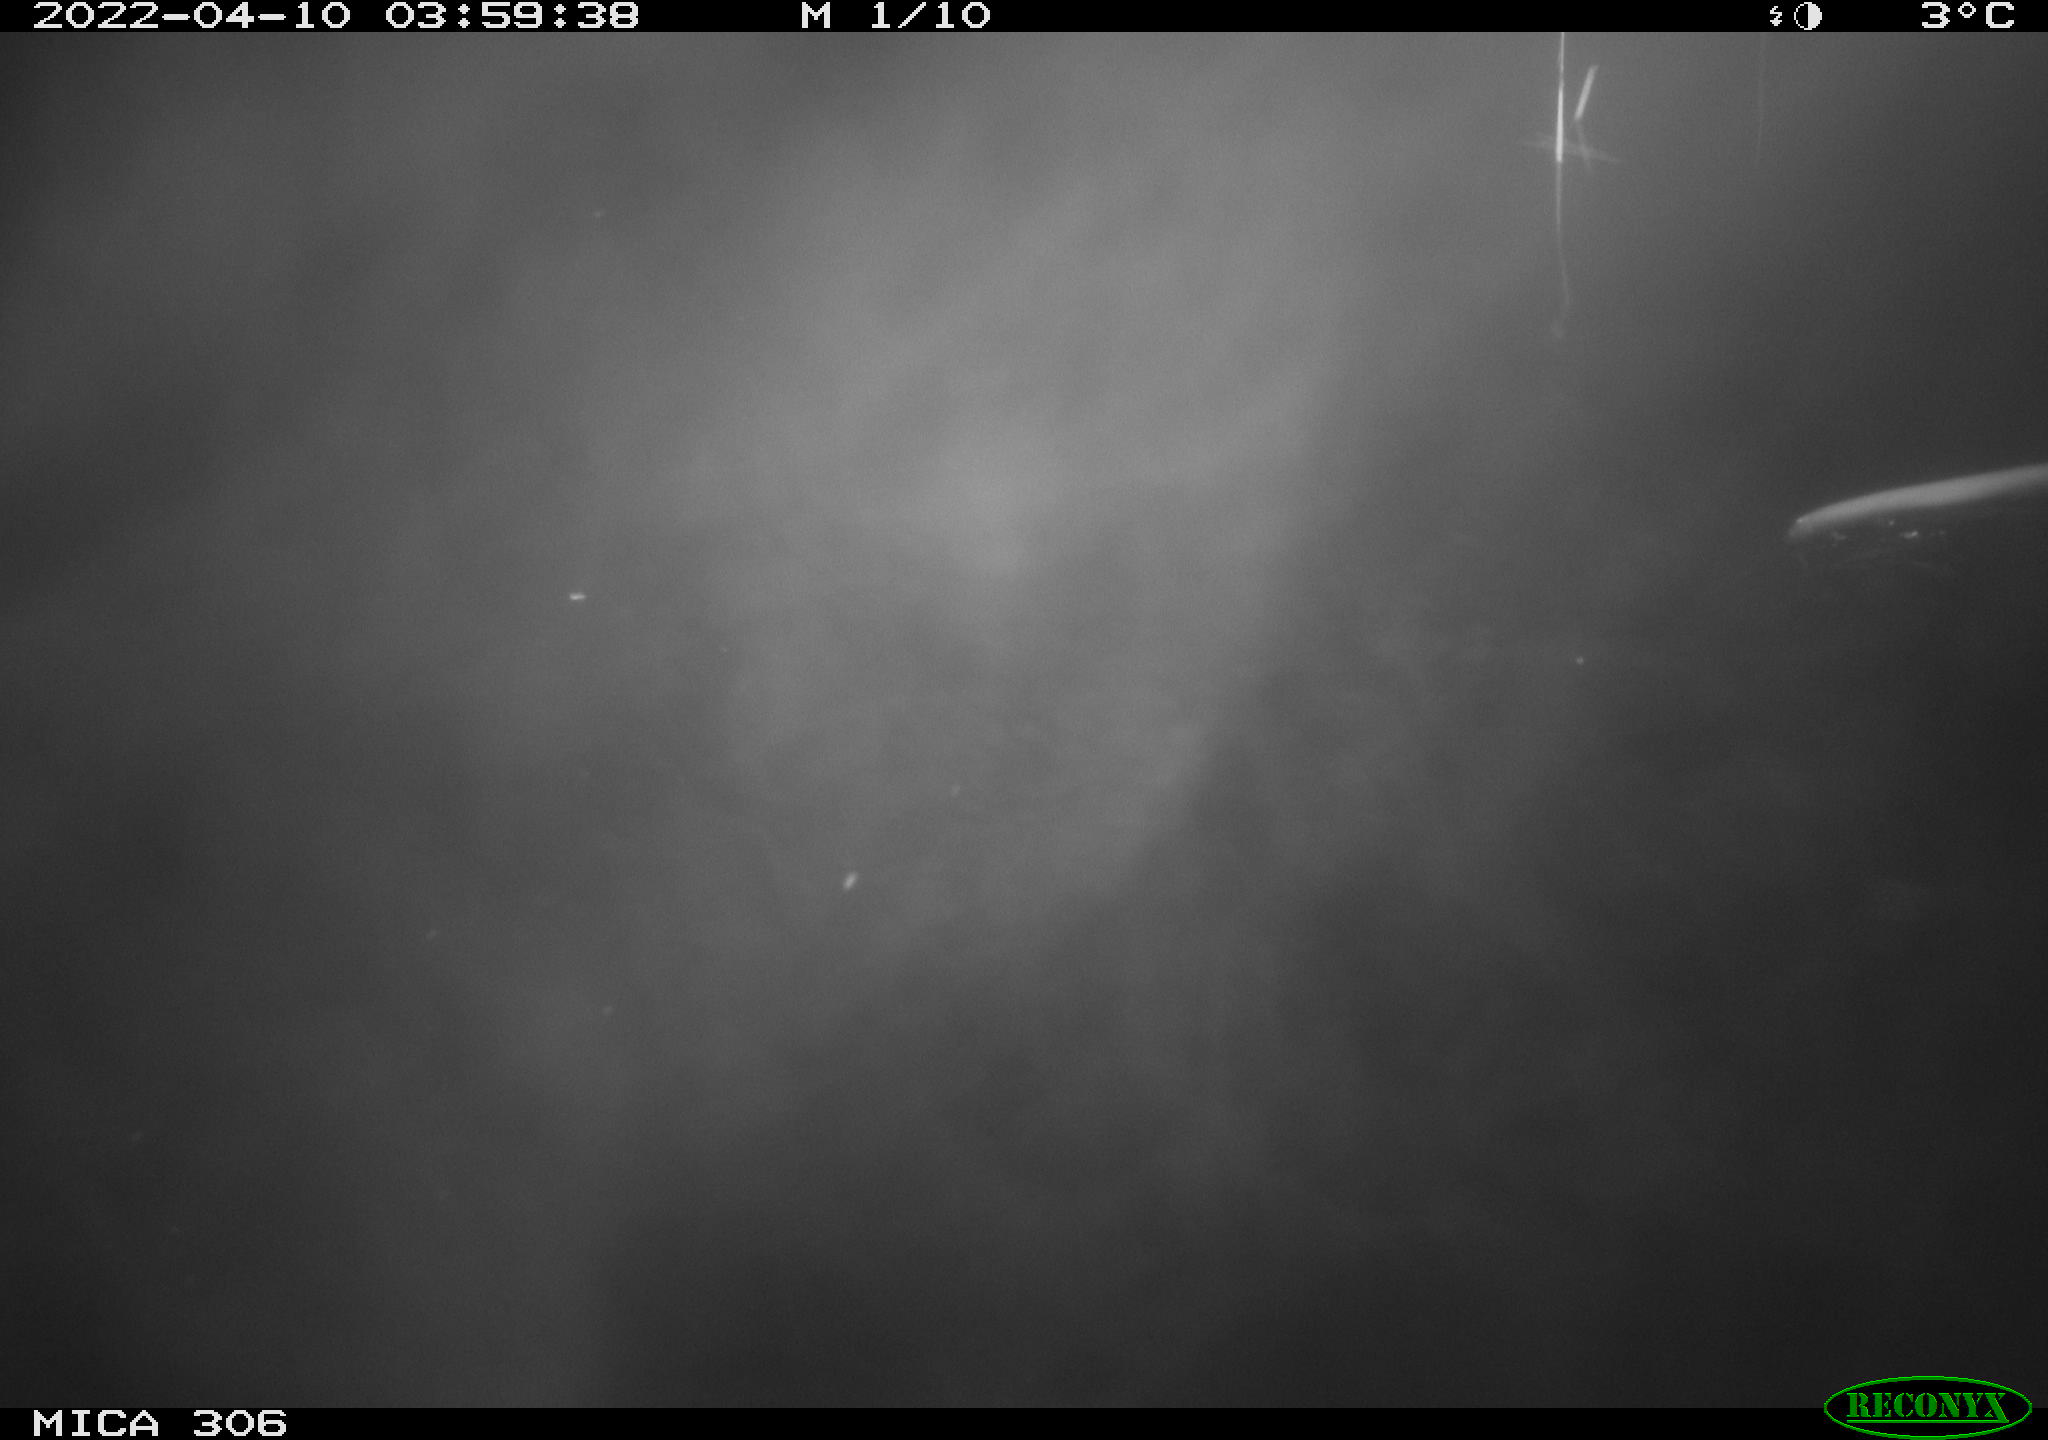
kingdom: Animalia
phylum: Chordata
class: Mammalia
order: Rodentia
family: Cricetidae
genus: Ondatra
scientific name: Ondatra zibethicus
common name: Muskrat
